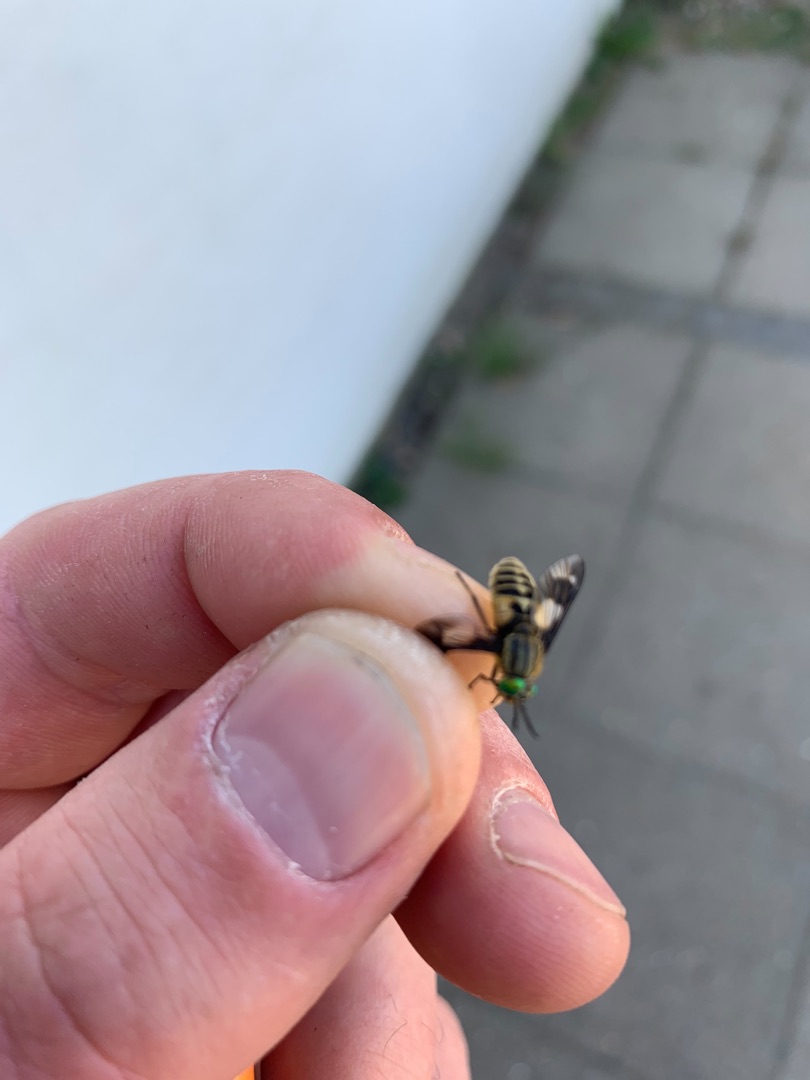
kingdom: Animalia
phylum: Arthropoda
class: Insecta
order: Diptera
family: Tabanidae
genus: Chrysops
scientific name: Chrysops relictus
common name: Guldklæg
